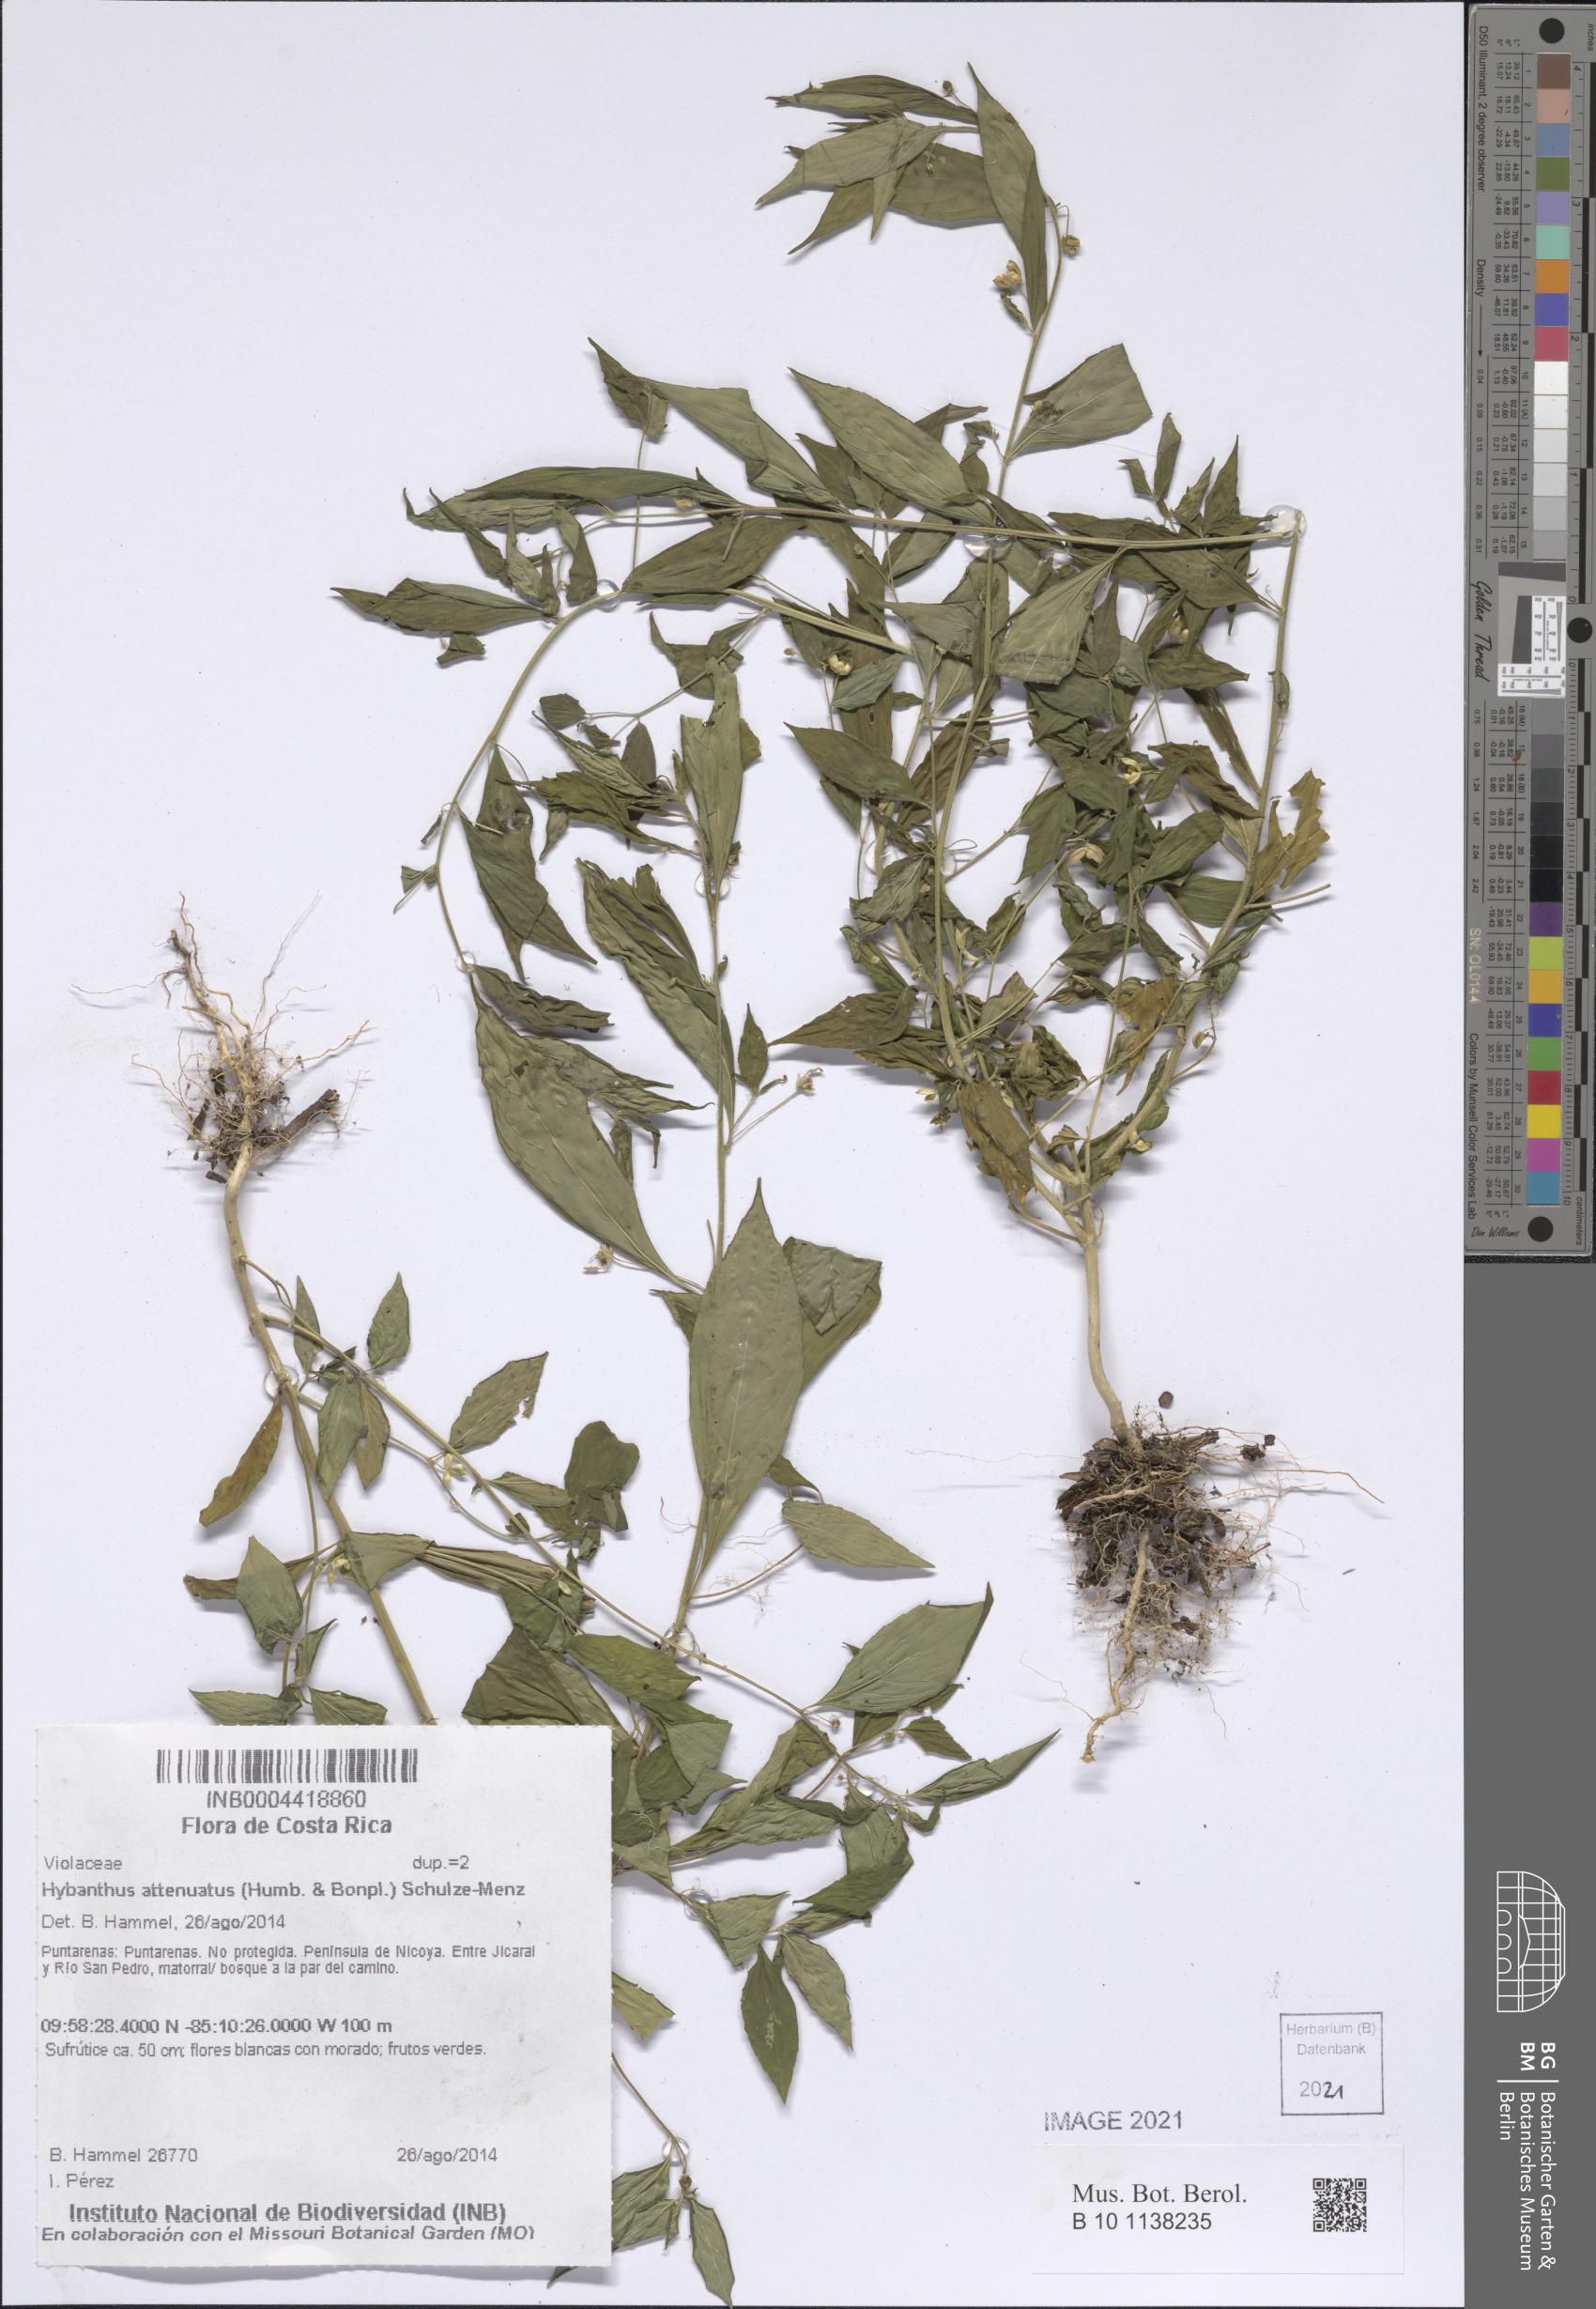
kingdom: Plantae
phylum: Tracheophyta
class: Magnoliopsida
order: Malpighiales
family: Violaceae
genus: Pombalia
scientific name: Pombalia attenuata
